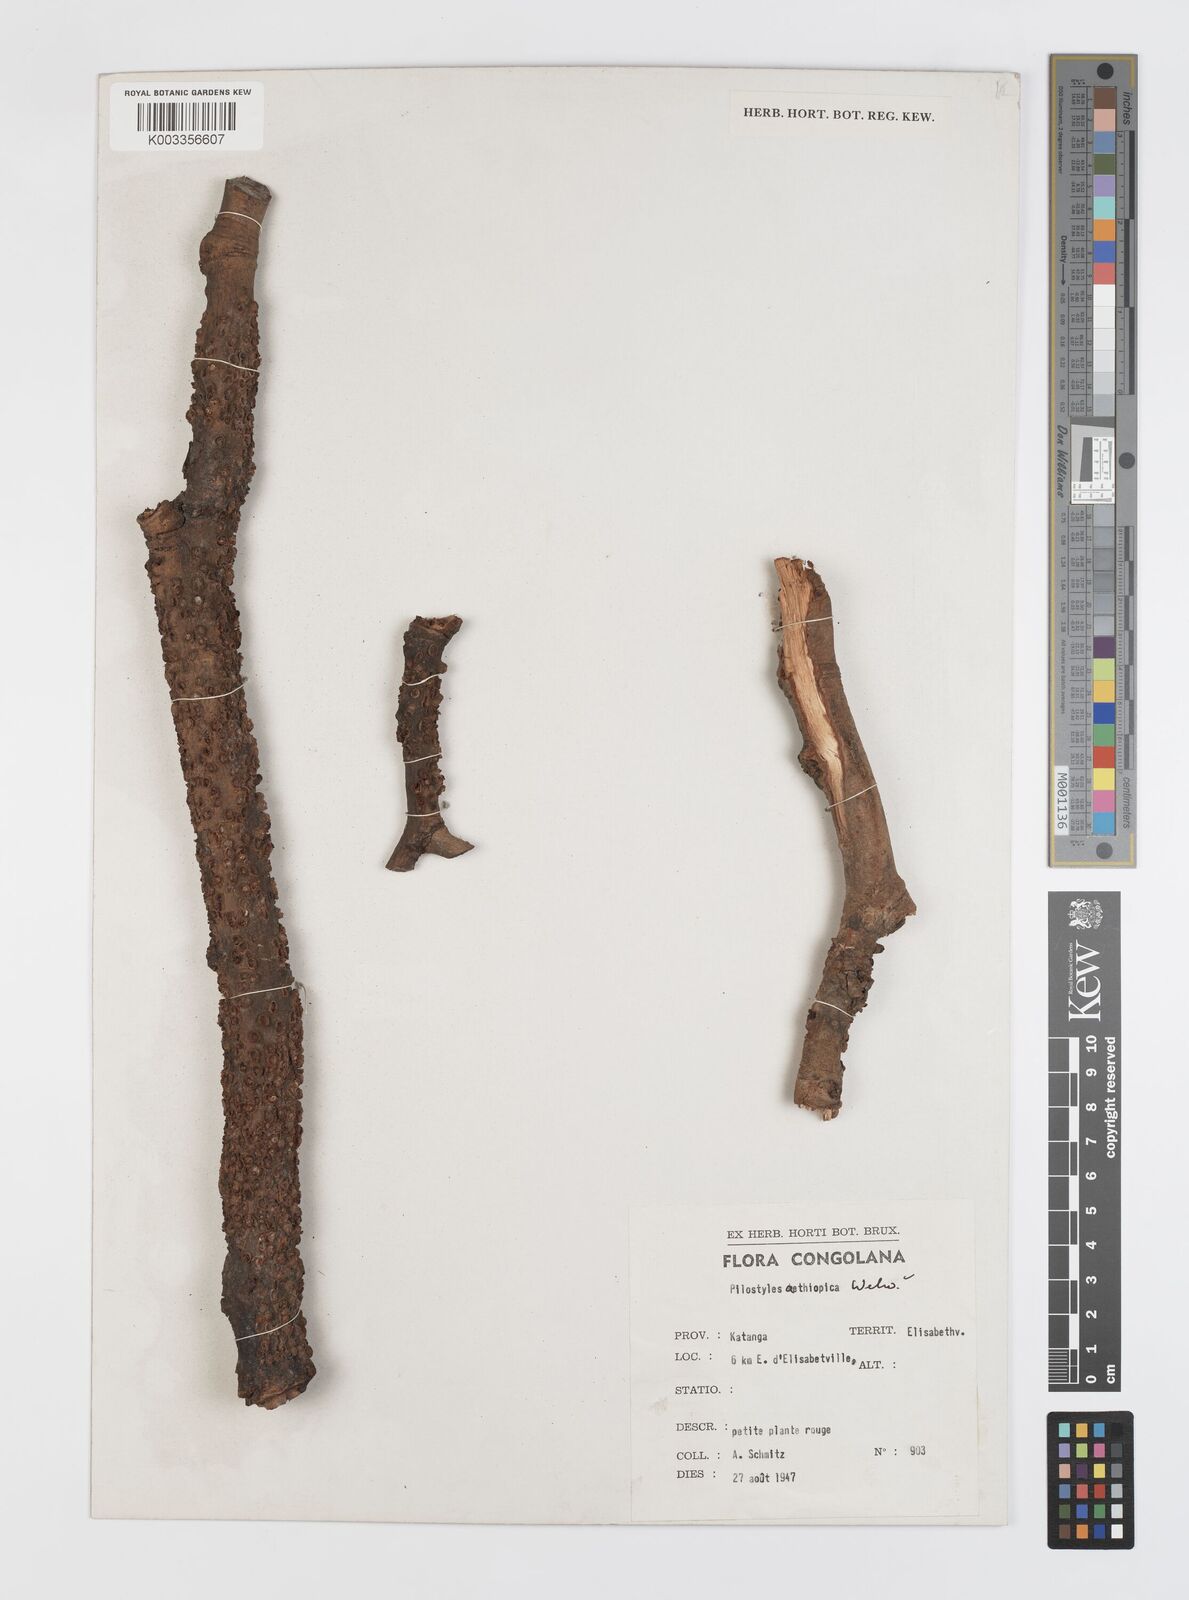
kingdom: Plantae
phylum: Tracheophyta
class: Magnoliopsida
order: Cucurbitales
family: Apodanthaceae
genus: Pilostyles
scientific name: Pilostyles aethiopica
